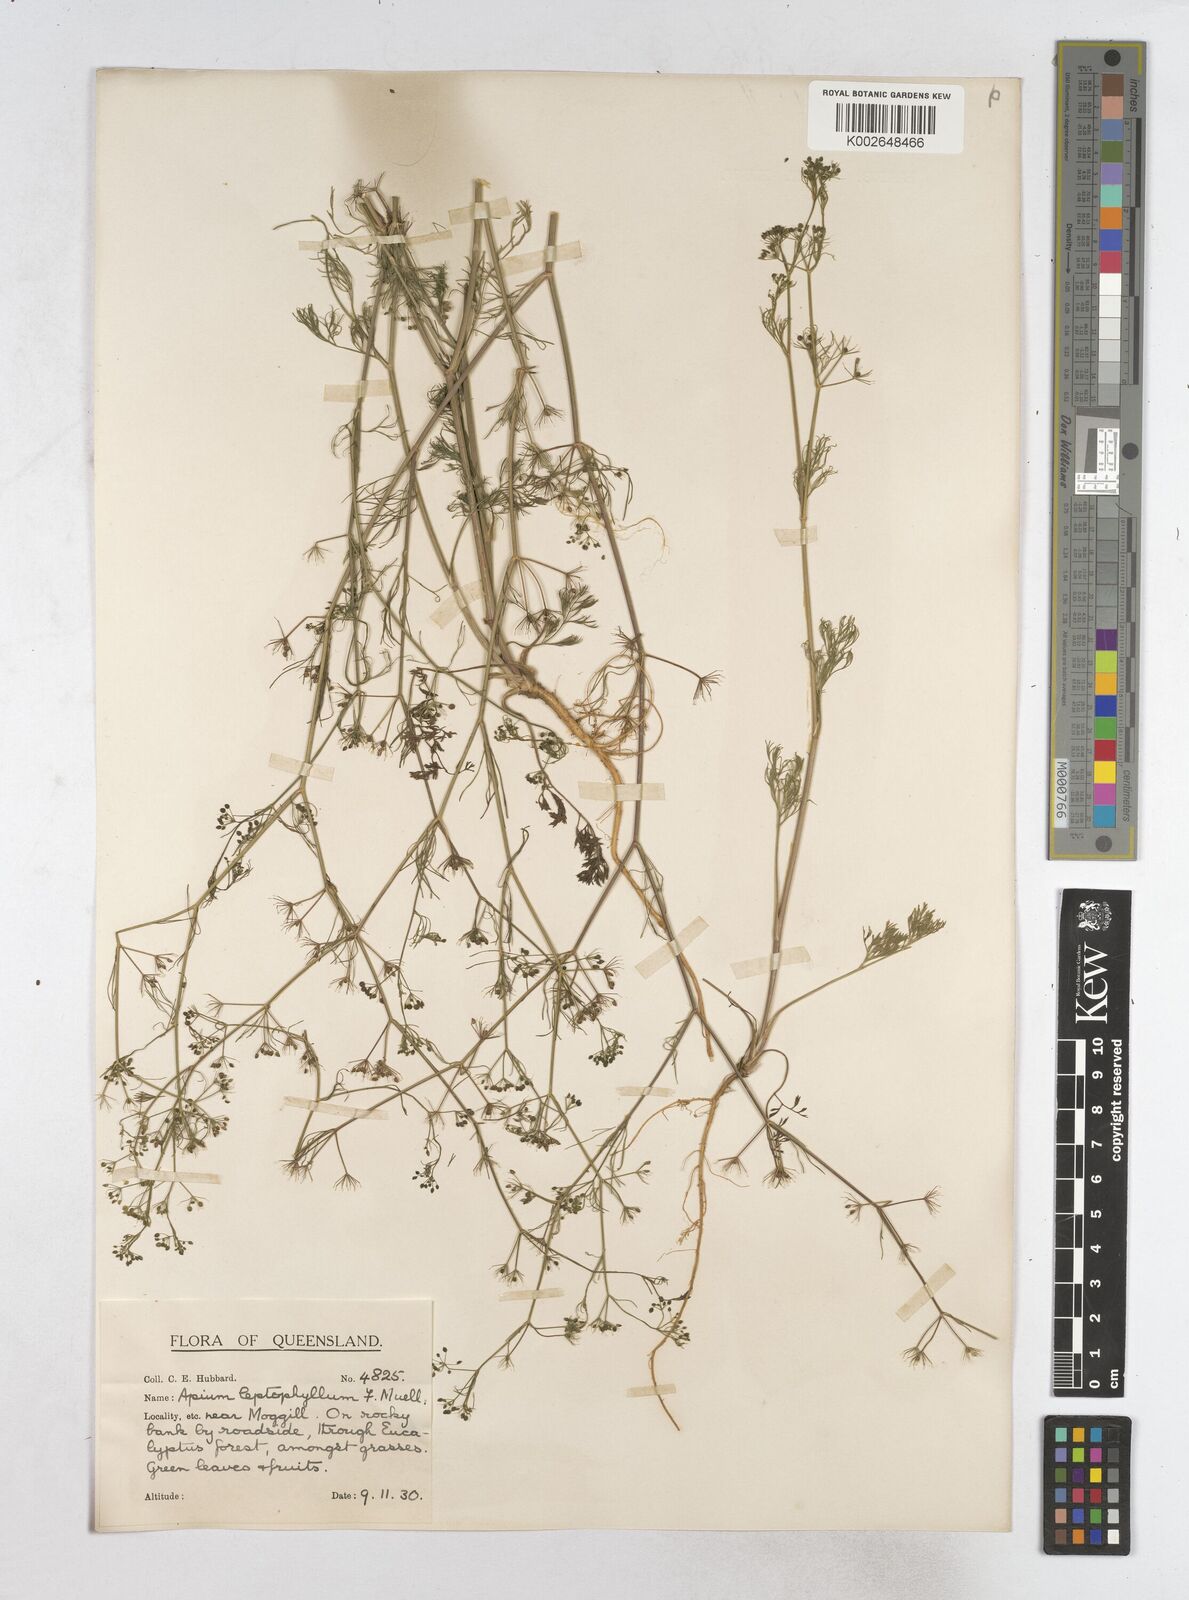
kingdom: Plantae
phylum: Tracheophyta
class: Magnoliopsida
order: Apiales
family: Apiaceae
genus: Cyclospermum
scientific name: Cyclospermum leptophyllum
